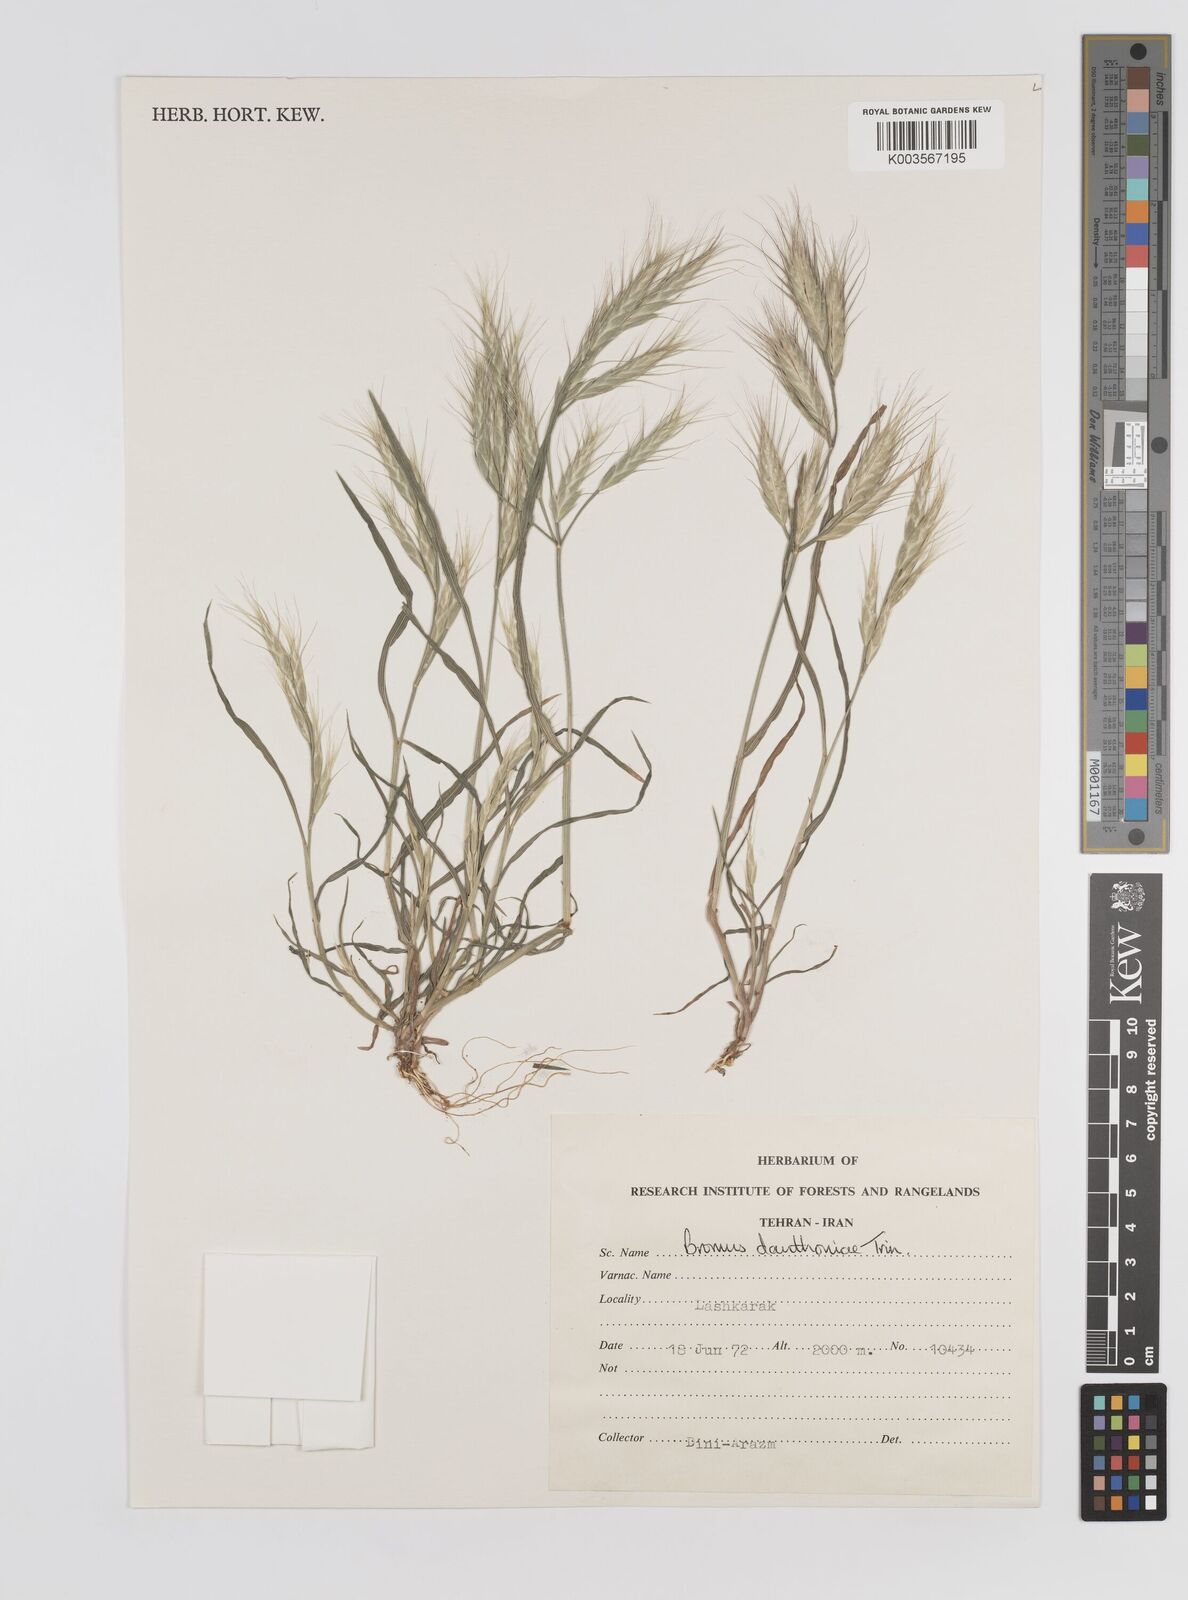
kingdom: Plantae
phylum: Tracheophyta
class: Liliopsida
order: Poales
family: Poaceae
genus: Bromus
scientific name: Bromus danthoniae
